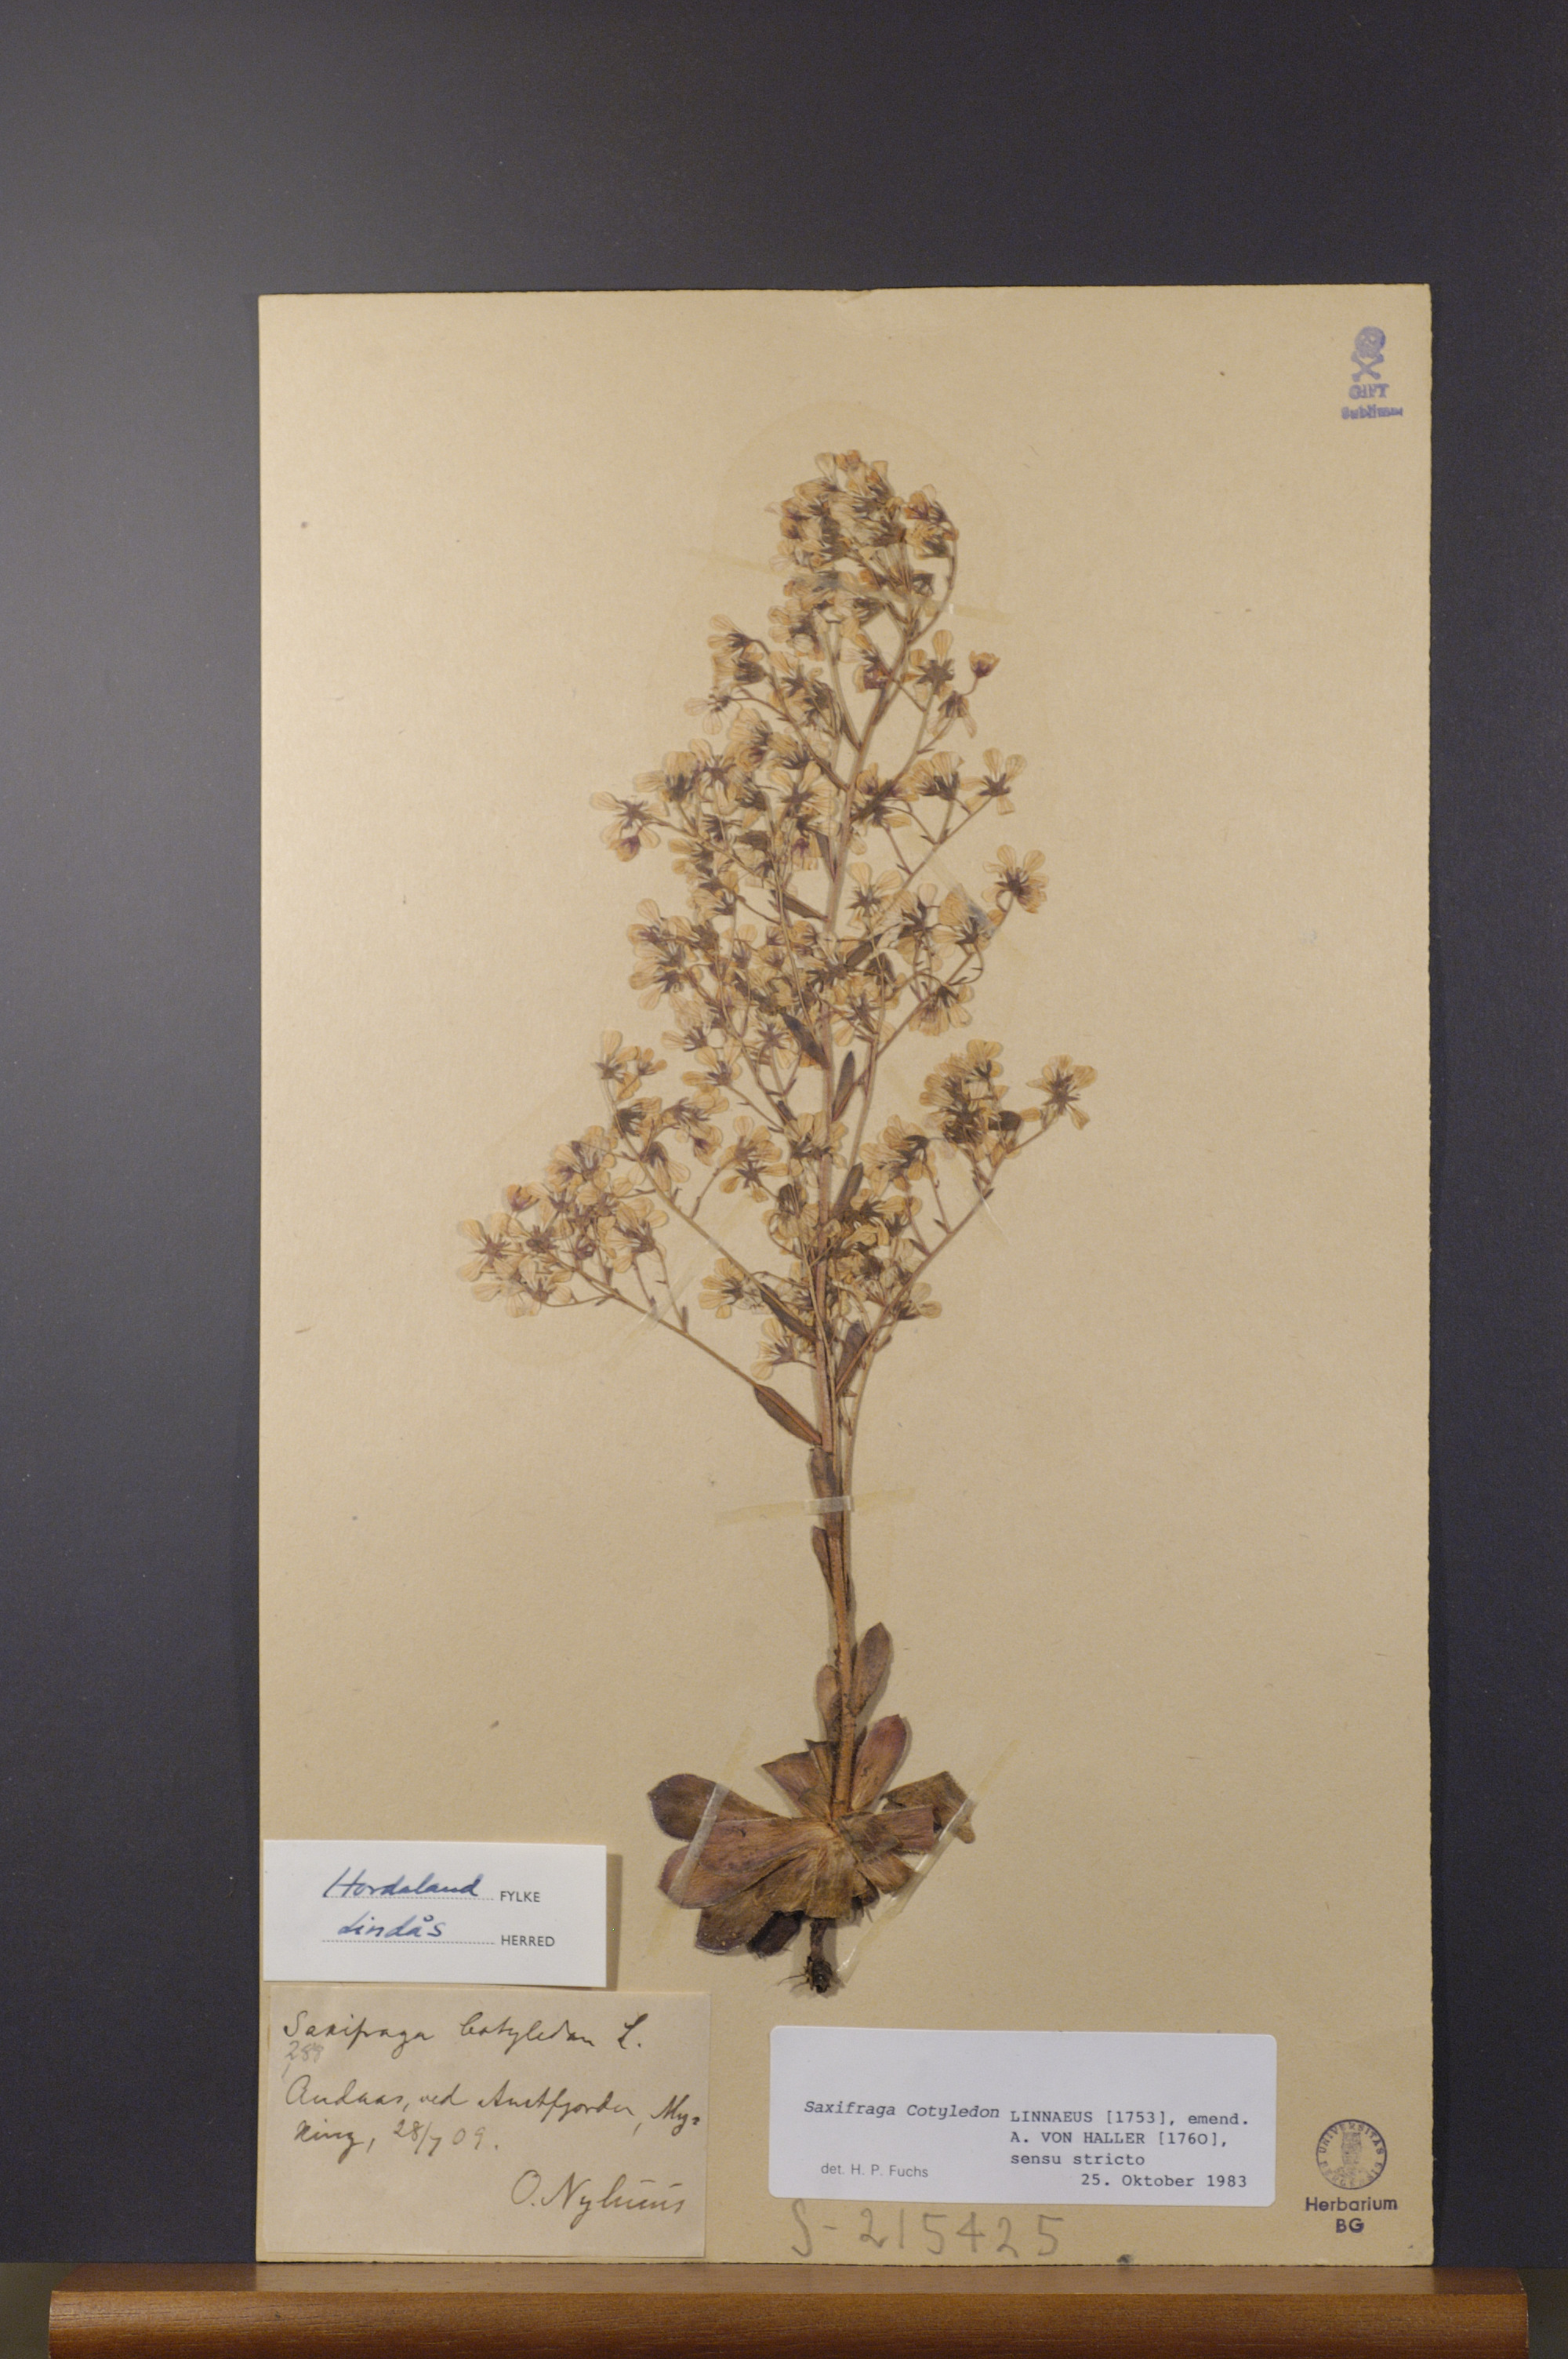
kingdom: Plantae
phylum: Tracheophyta
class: Magnoliopsida
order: Saxifragales
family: Saxifragaceae
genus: Saxifraga
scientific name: Saxifraga cotyledon
